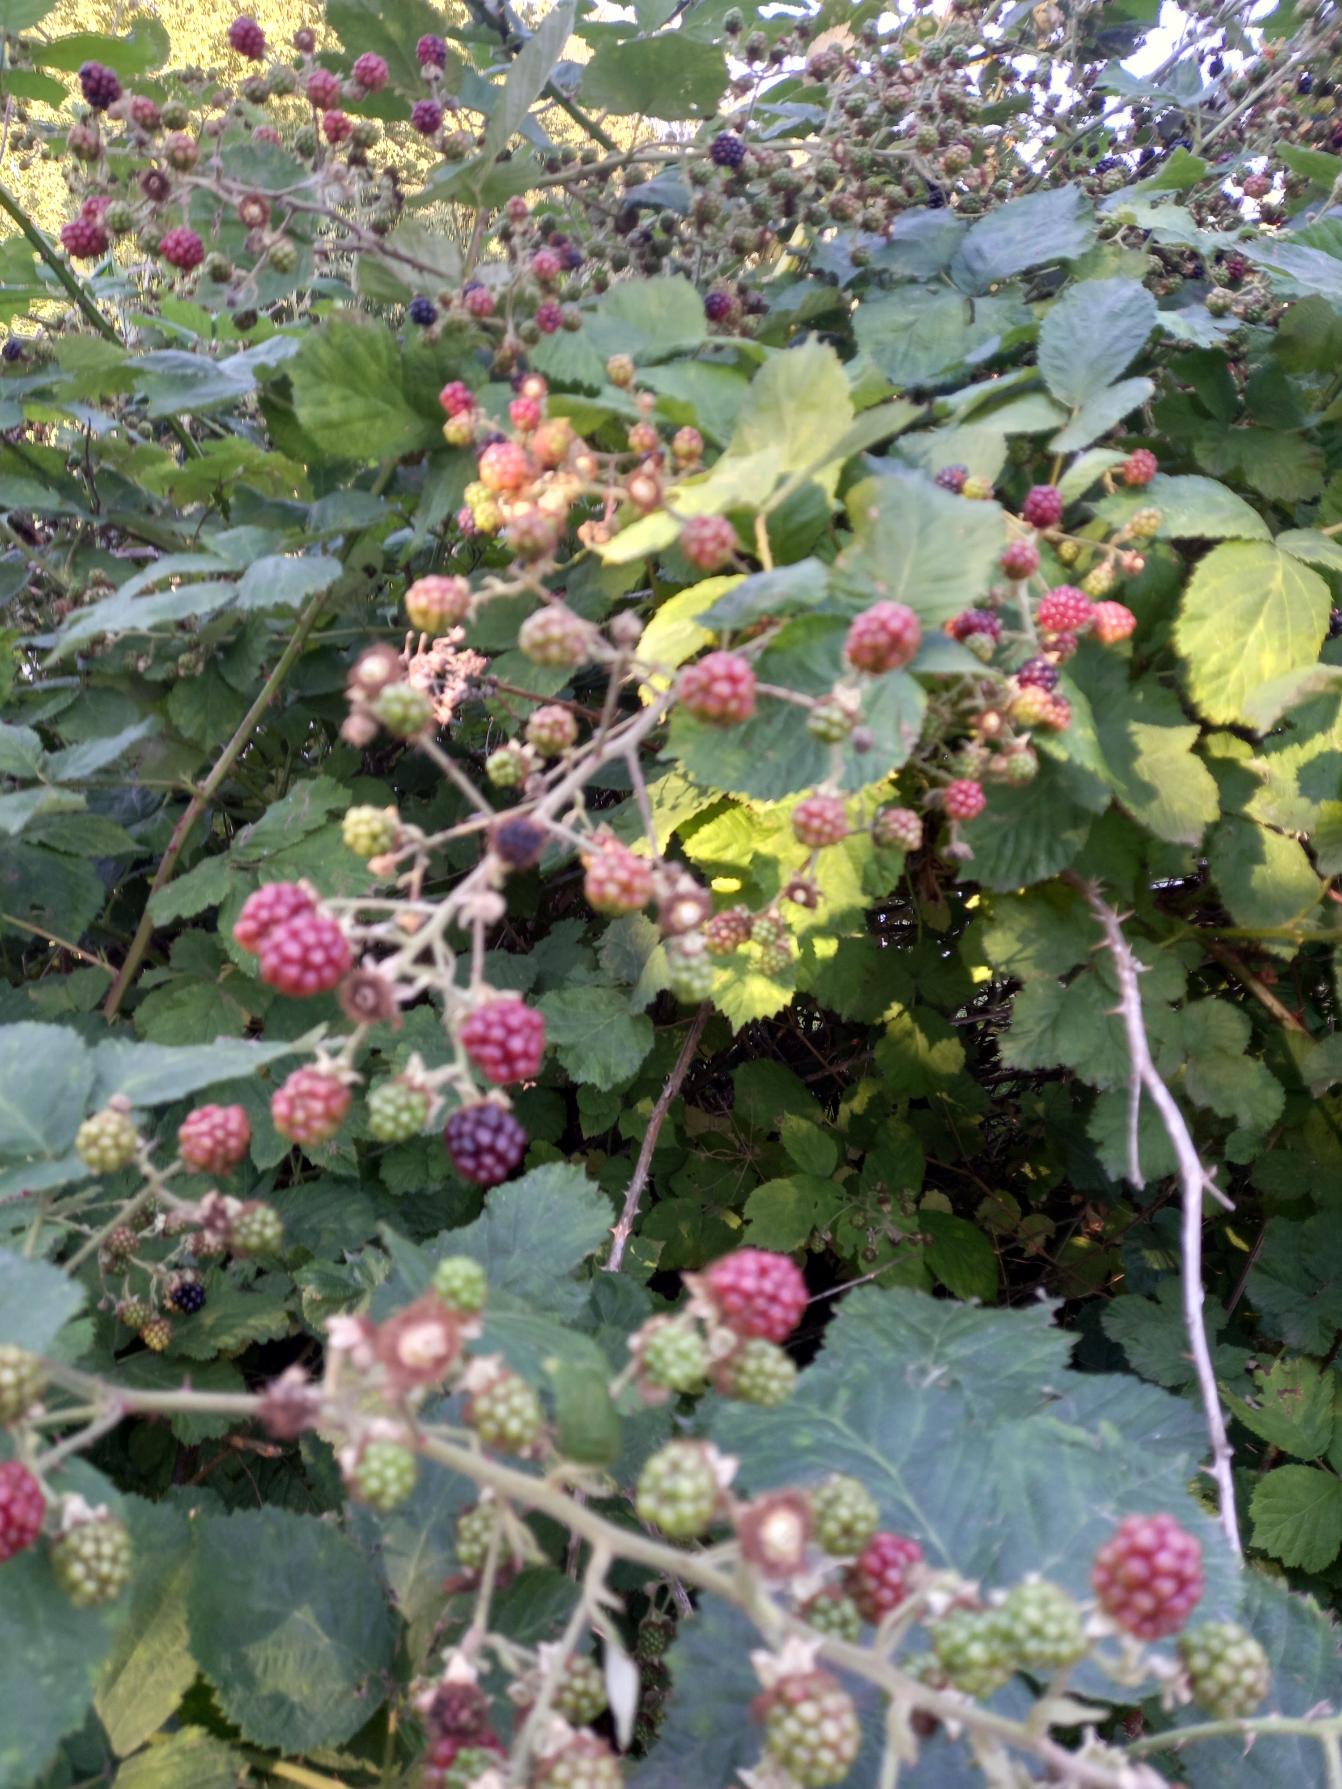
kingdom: Plantae
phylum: Tracheophyta
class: Magnoliopsida
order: Rosales
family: Rosaceae
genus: Rubus
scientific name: Rubus
